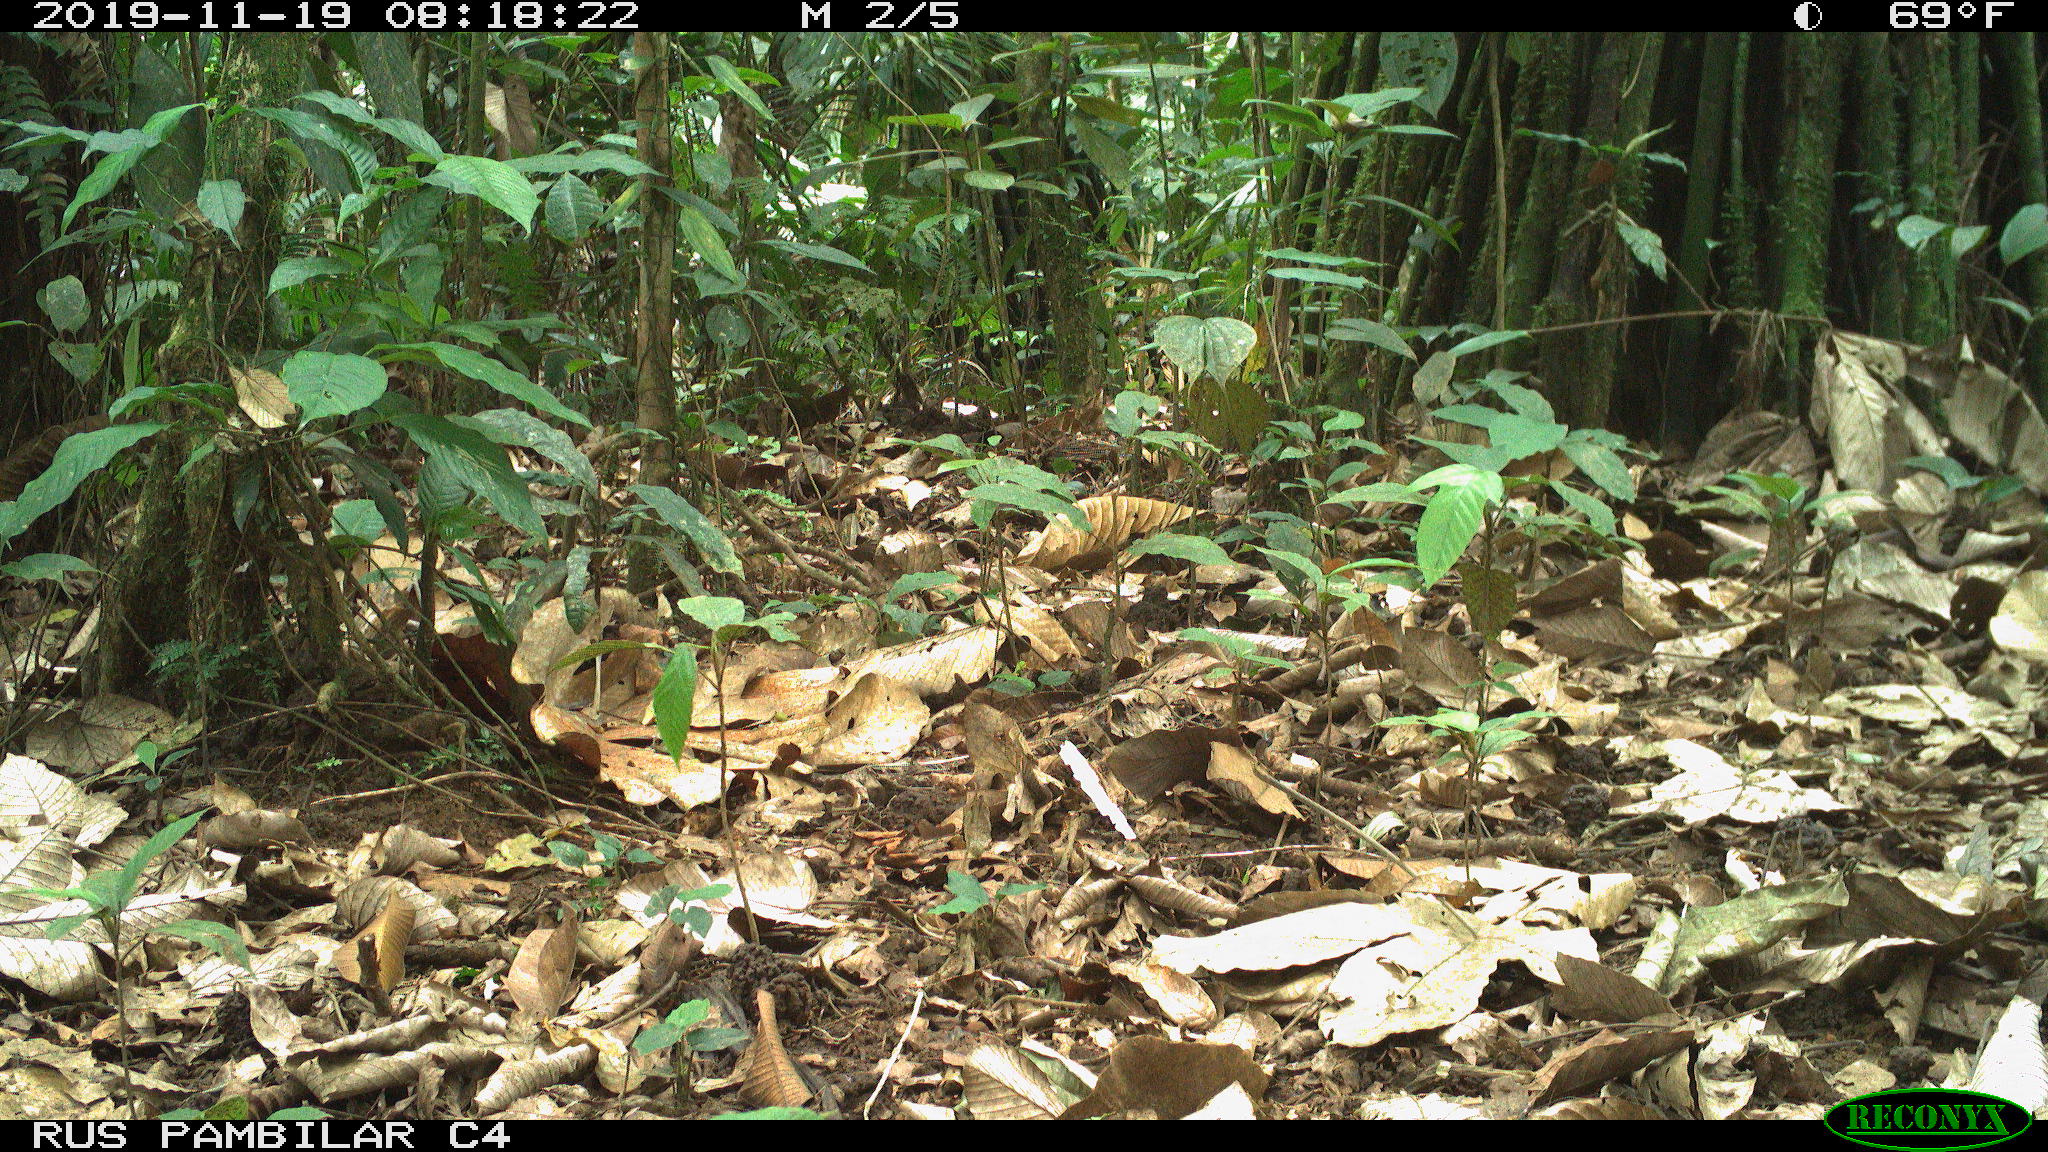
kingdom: Animalia
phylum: Chordata
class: Mammalia
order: Rodentia
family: Dasyproctidae
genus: Dasyprocta
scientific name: Dasyprocta punctata
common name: Central american agouti
